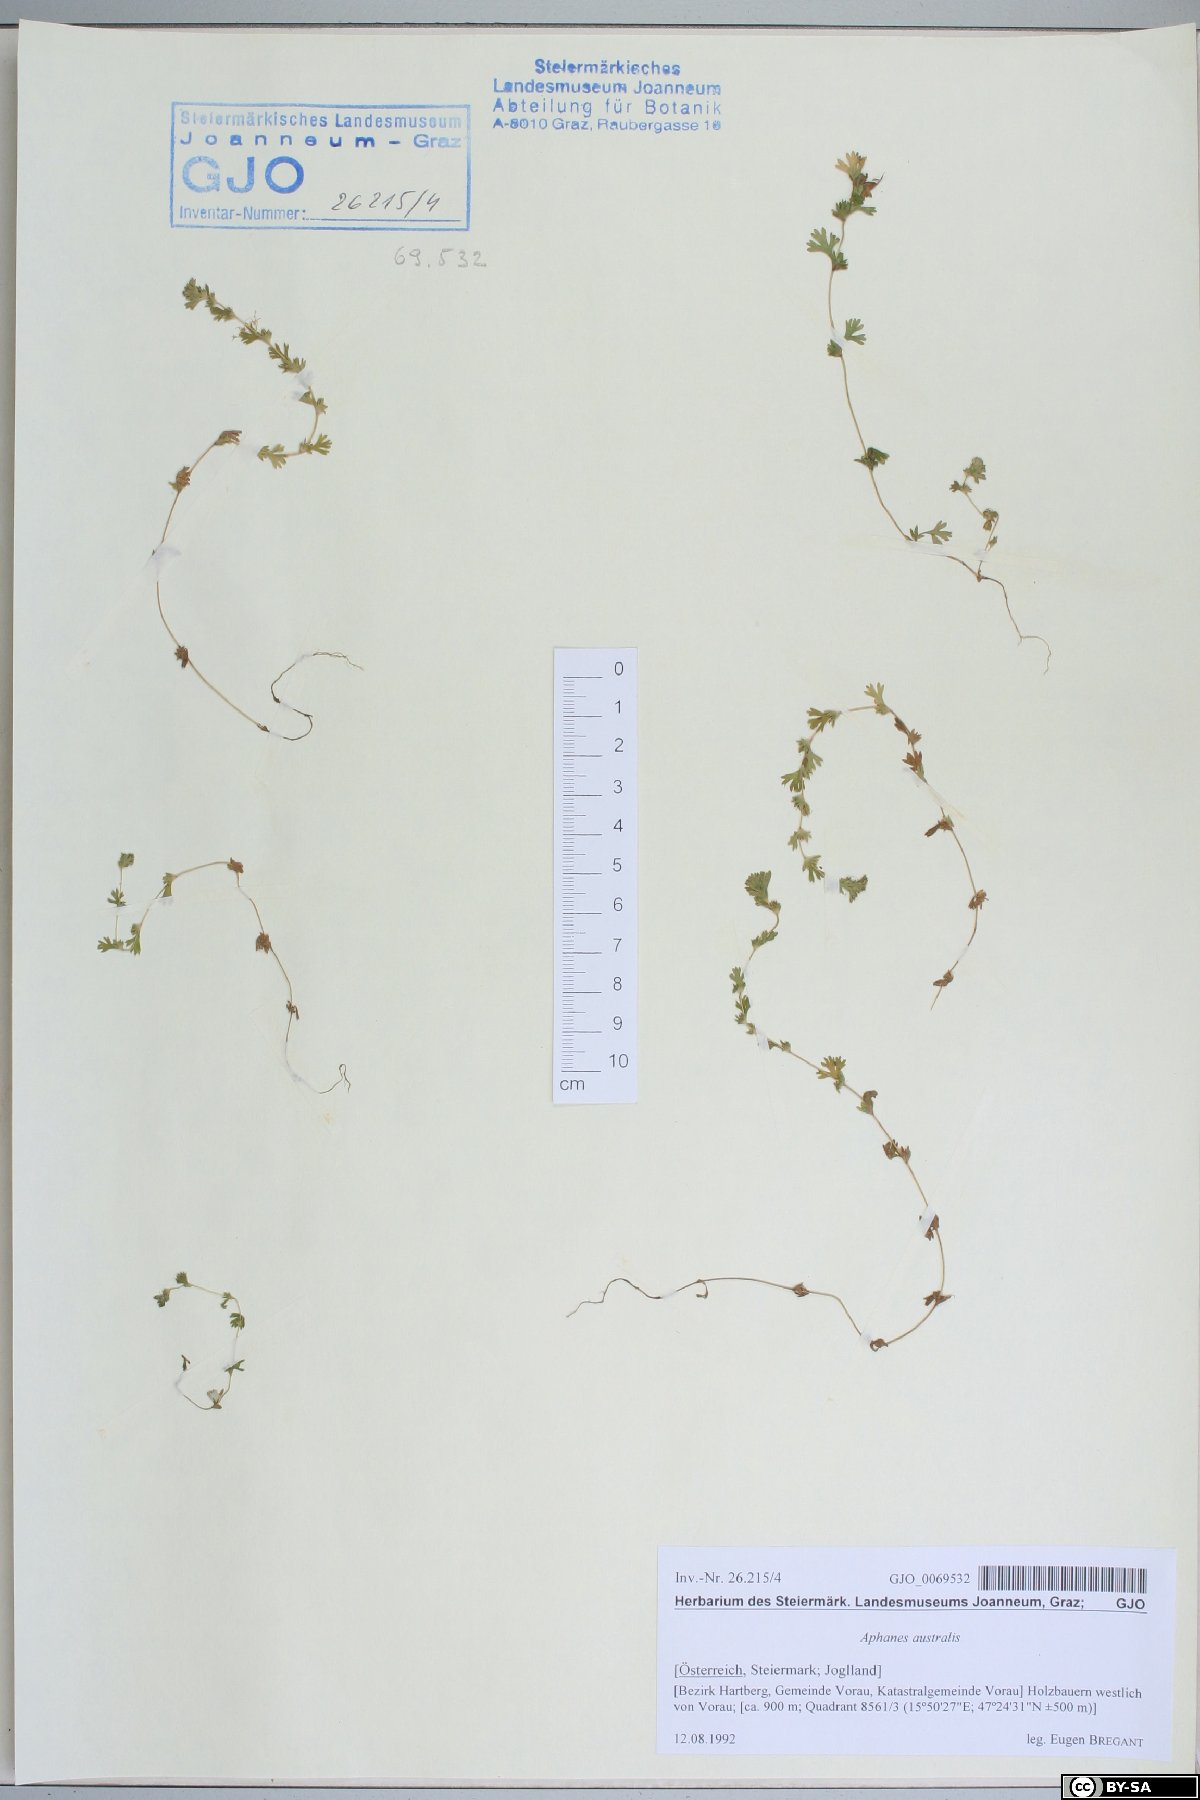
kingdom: Plantae
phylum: Tracheophyta
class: Magnoliopsida
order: Rosales
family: Rosaceae
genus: Aphanes
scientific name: Aphanes australis
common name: Slender parsley-piert
